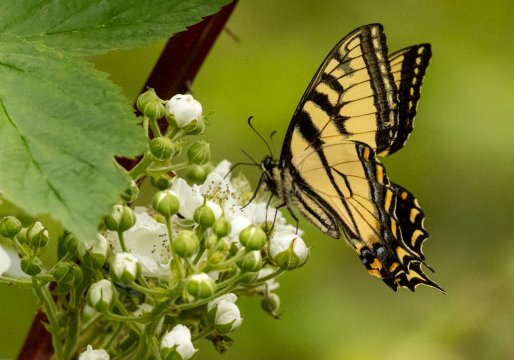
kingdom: Animalia
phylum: Arthropoda
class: Insecta
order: Lepidoptera
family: Papilionidae
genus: Pterourus
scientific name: Pterourus canadensis
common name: Canadian Tiger Swallowtail
